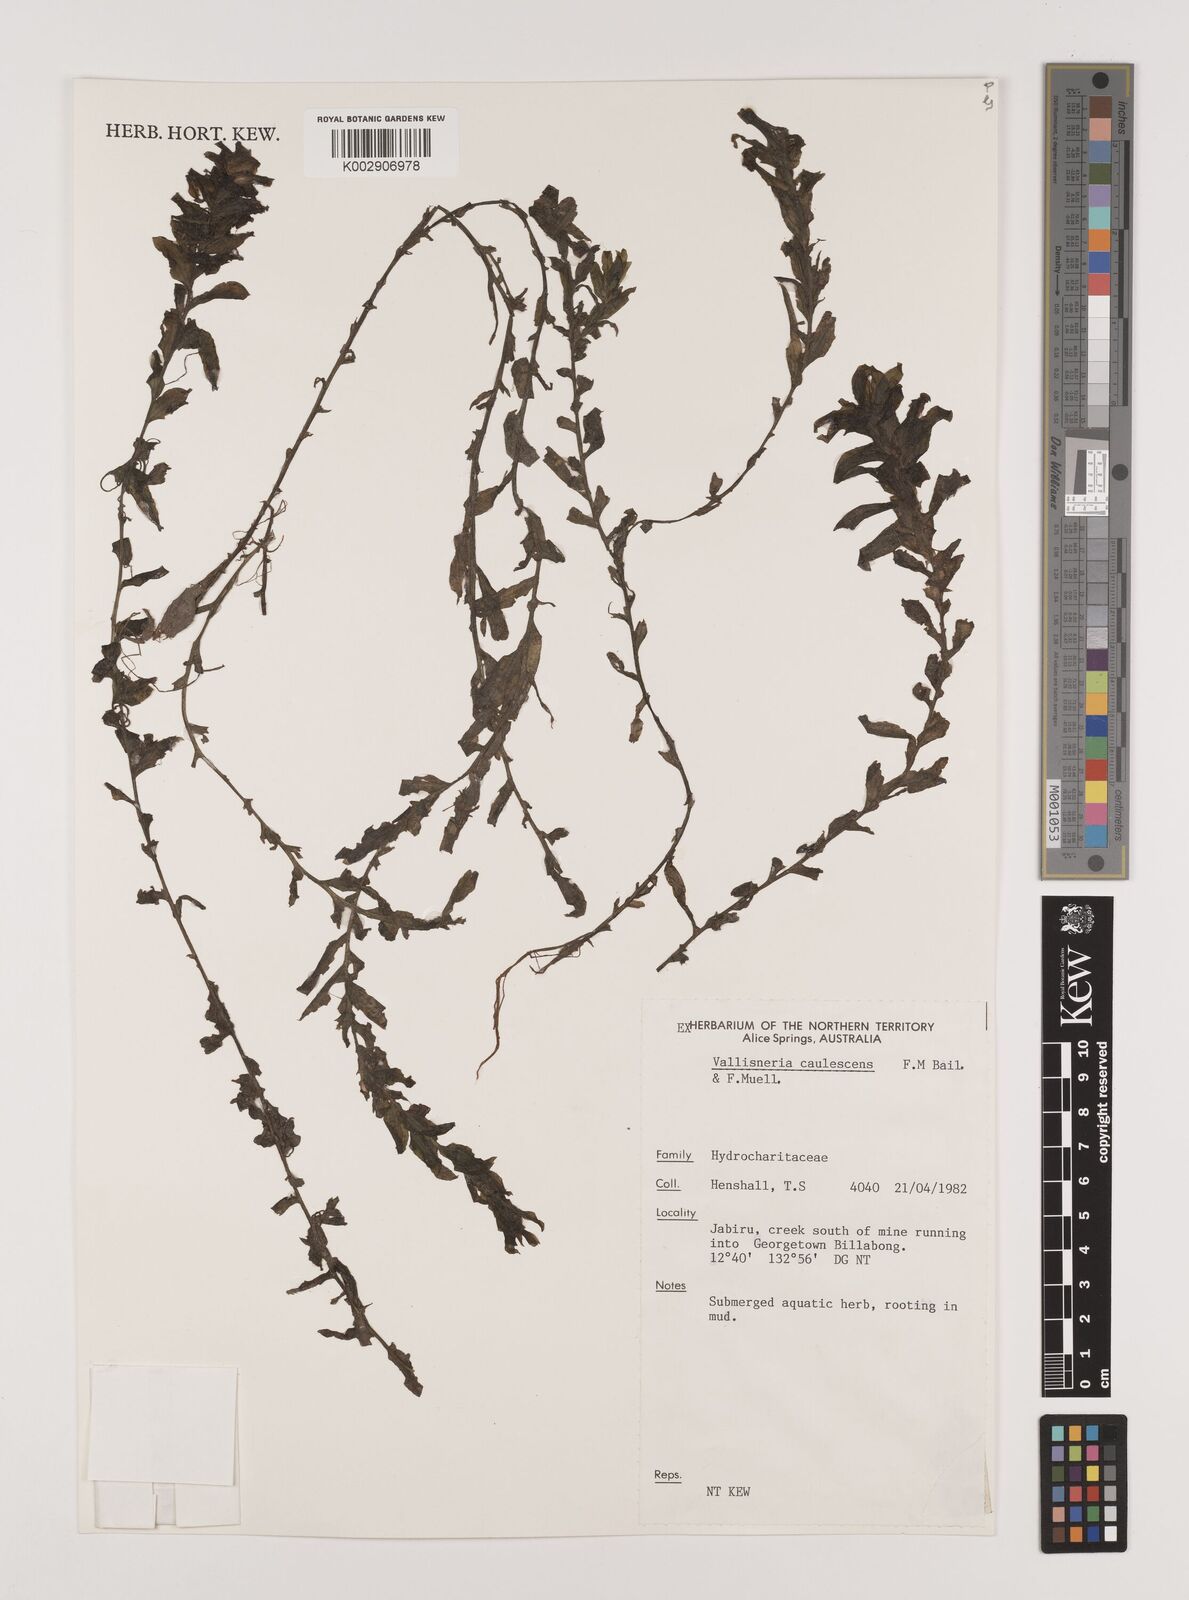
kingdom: Plantae
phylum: Tracheophyta
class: Liliopsida
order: Alismatales
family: Hydrocharitaceae
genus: Vallisneria
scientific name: Vallisneria caulescens
